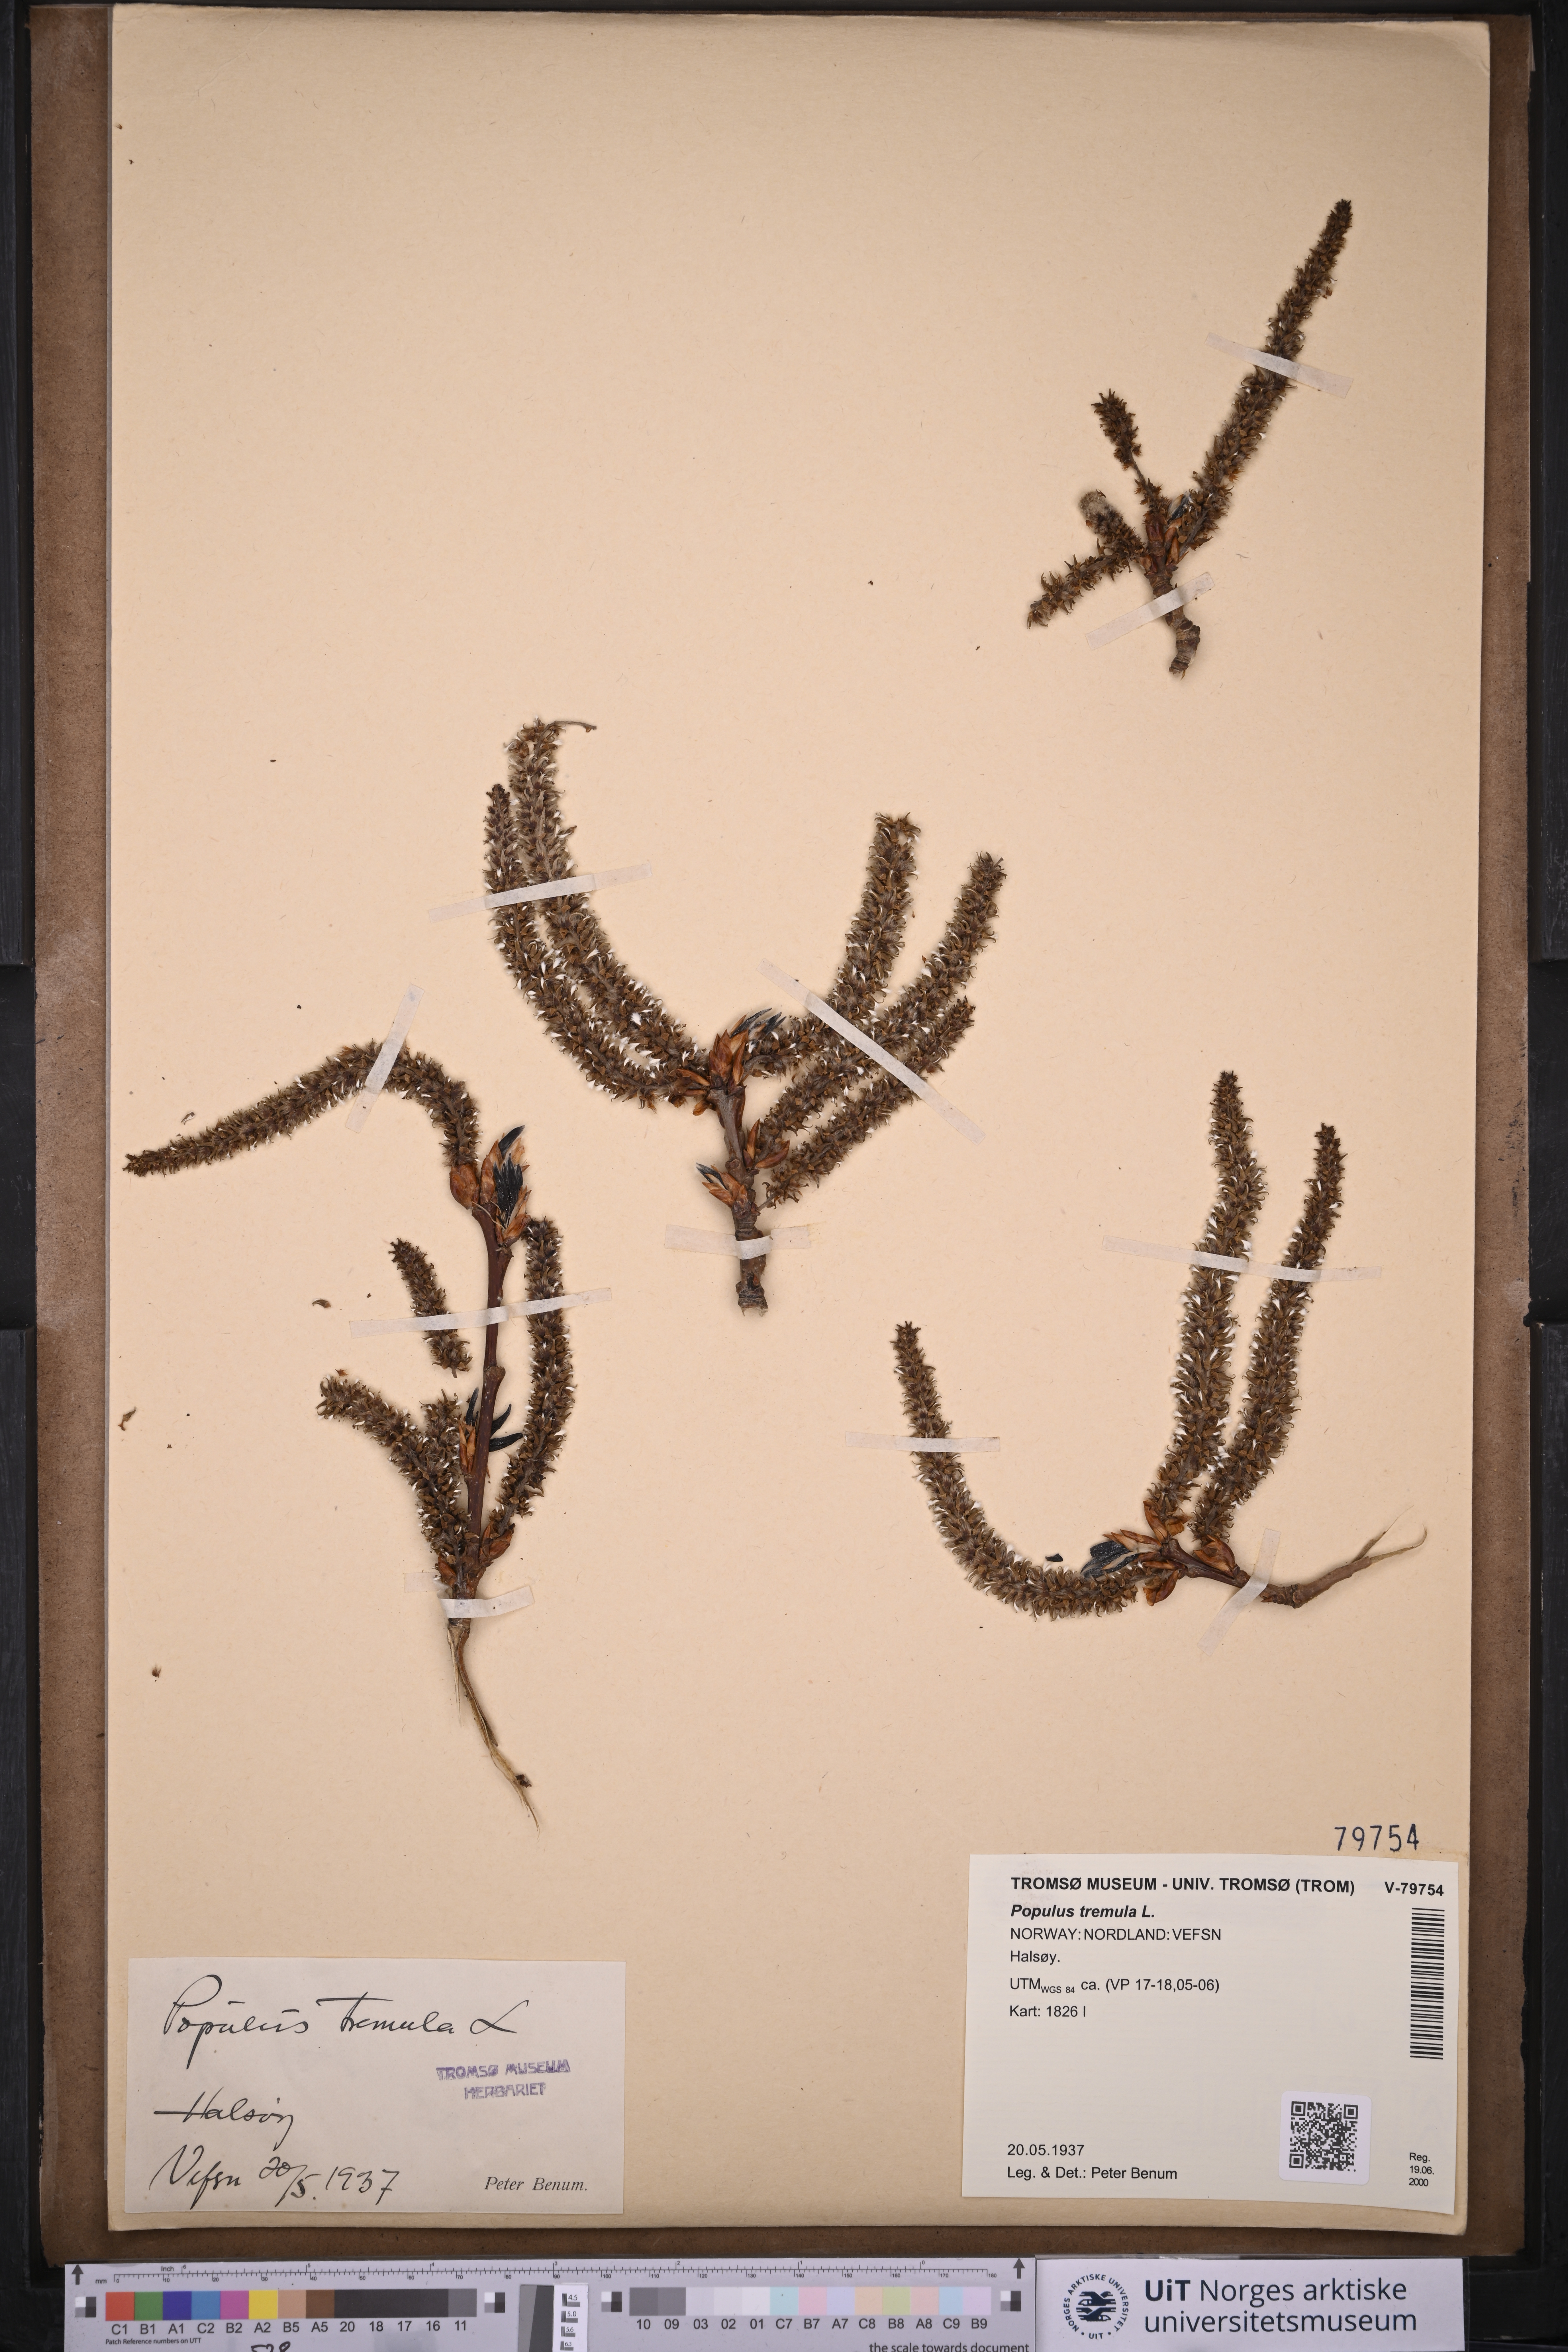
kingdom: Plantae
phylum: Tracheophyta
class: Magnoliopsida
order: Malpighiales
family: Salicaceae
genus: Populus
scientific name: Populus tremula
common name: European aspen
